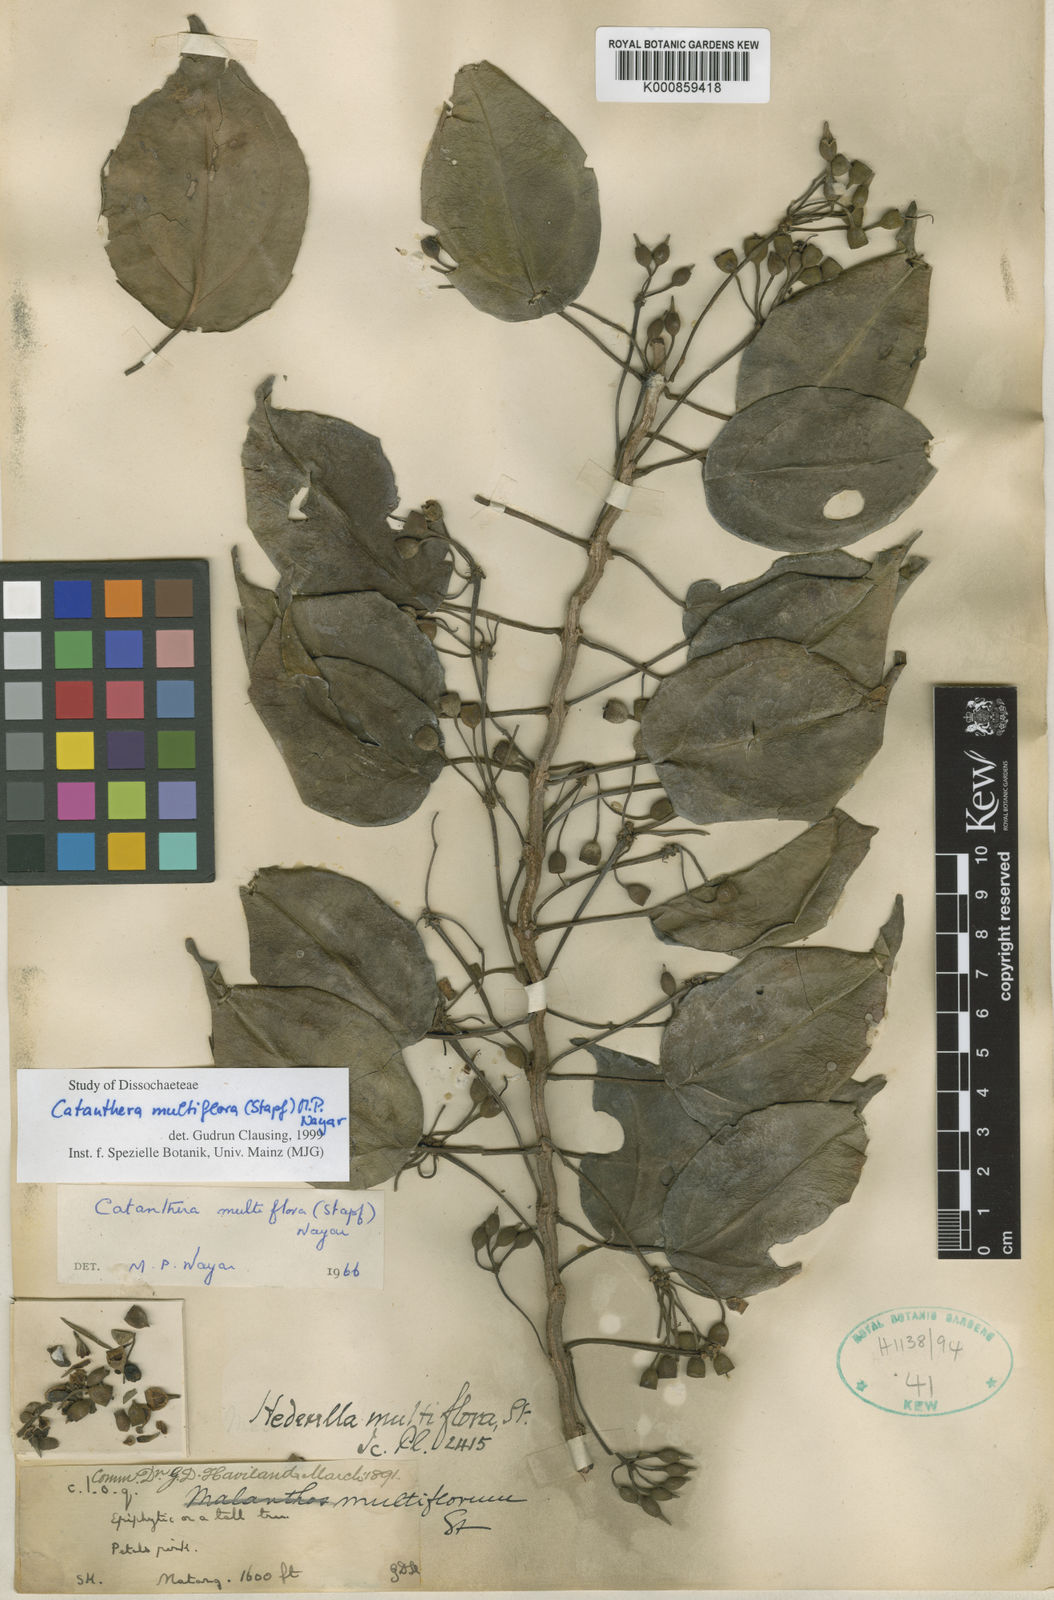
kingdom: Plantae
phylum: Tracheophyta
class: Magnoliopsida
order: Myrtales
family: Melastomataceae
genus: Catanthera
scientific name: Catanthera multiflora
